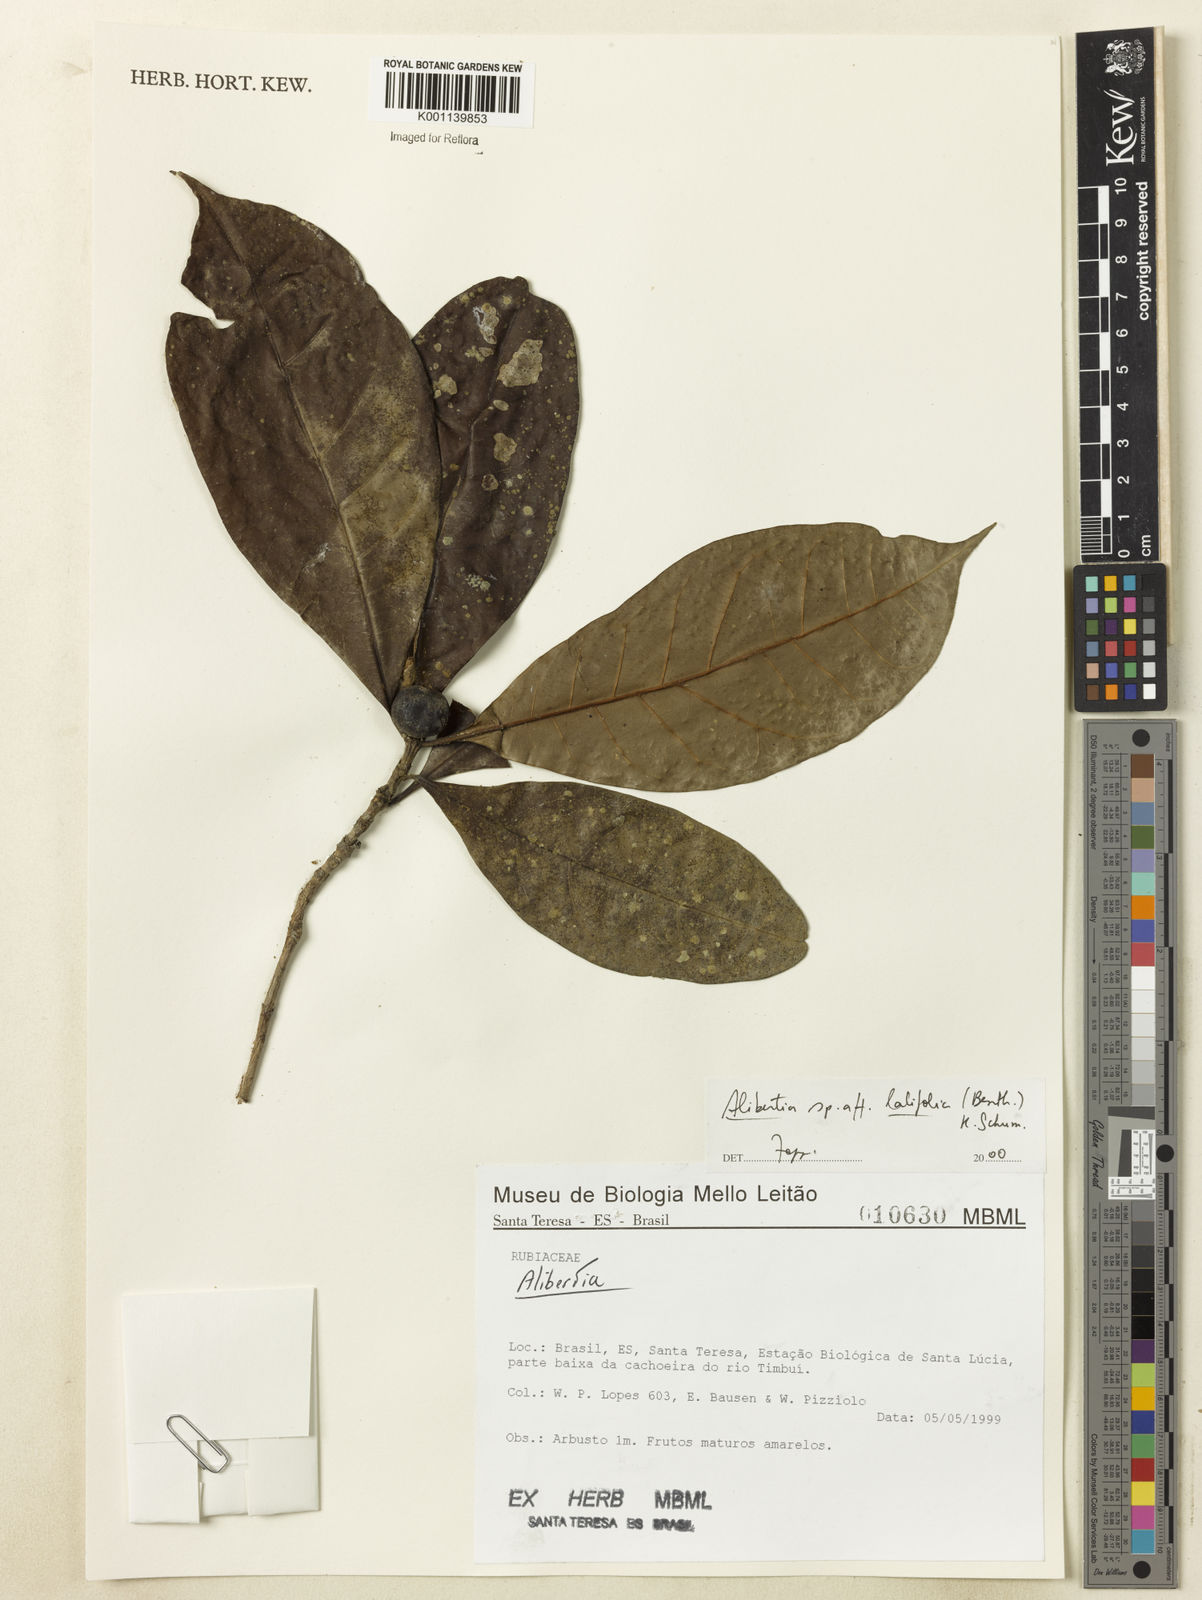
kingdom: Plantae
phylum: Tracheophyta
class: Magnoliopsida
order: Gentianales
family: Rubiaceae
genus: Alibertia
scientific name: Alibertia latifolia
